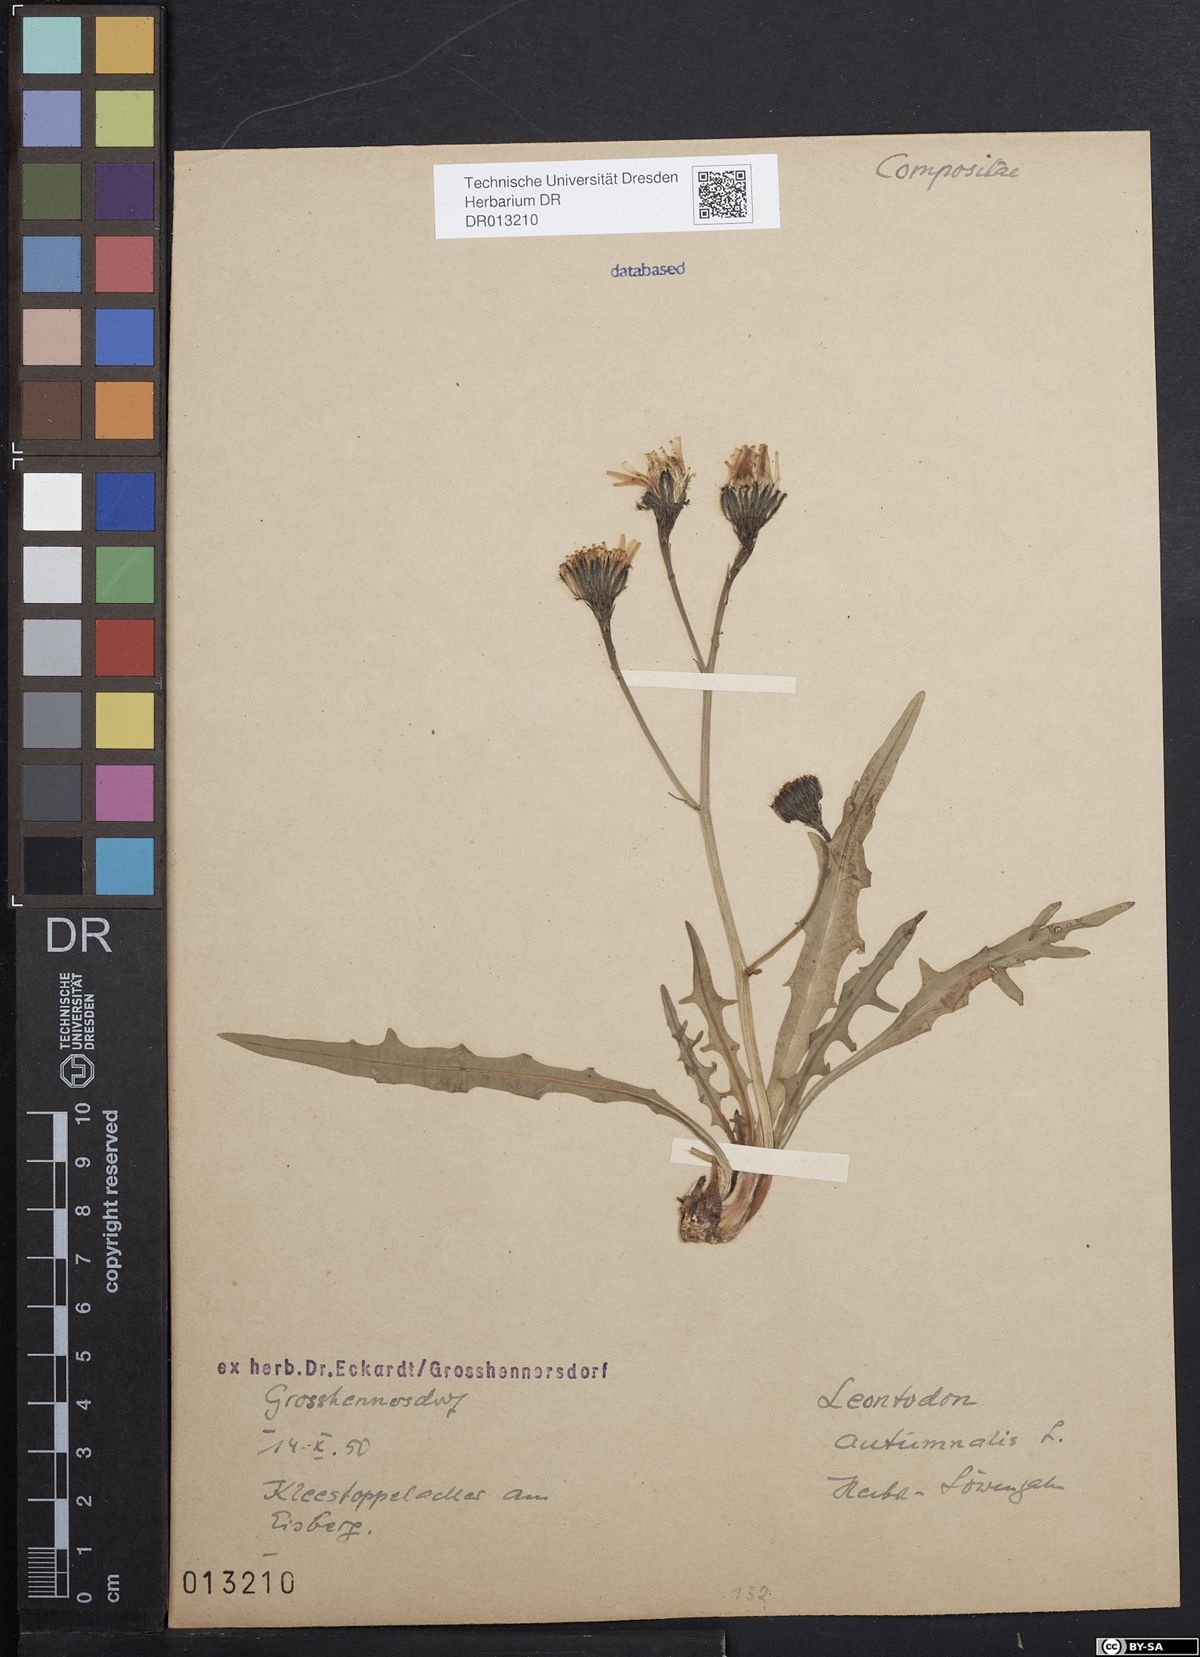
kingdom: Plantae
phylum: Tracheophyta
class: Magnoliopsida
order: Asterales
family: Asteraceae
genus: Scorzoneroides
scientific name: Scorzoneroides autumnalis
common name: Autumn hawkbit
